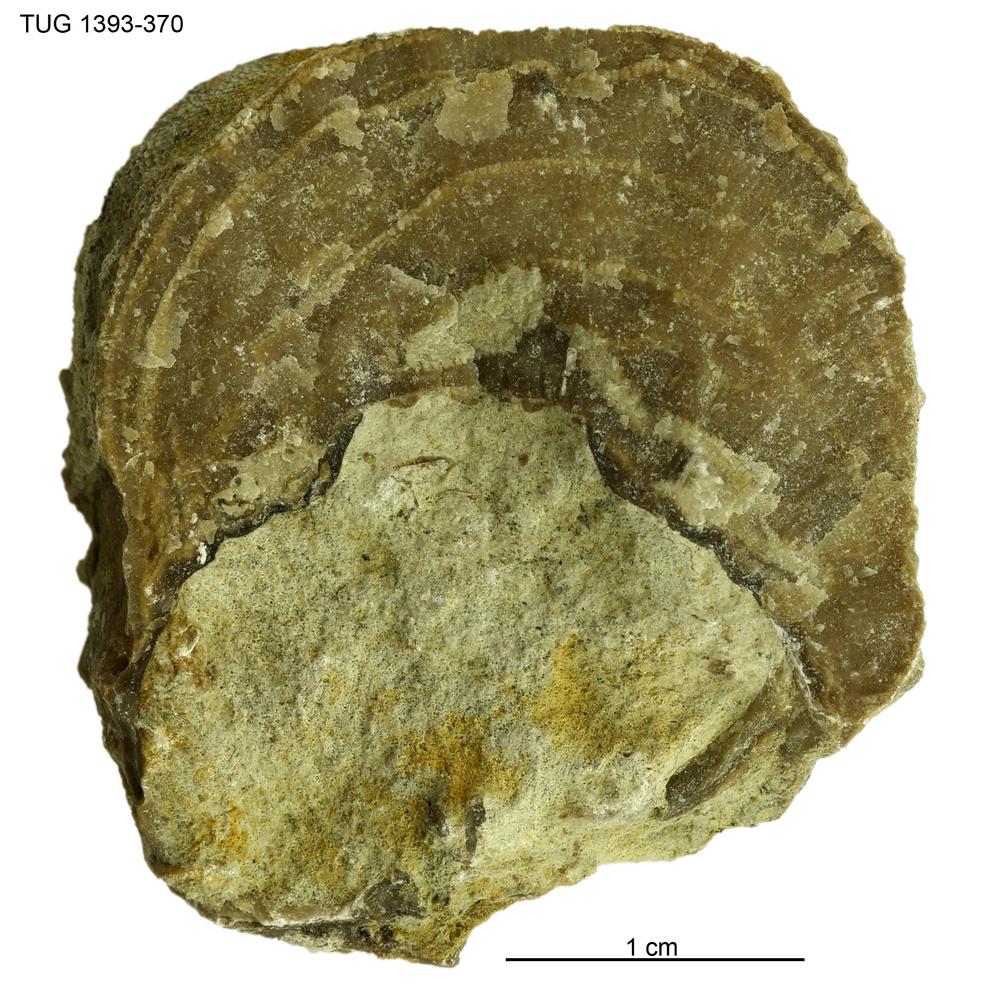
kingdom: Animalia
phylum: Bryozoa
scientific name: Bryozoa
